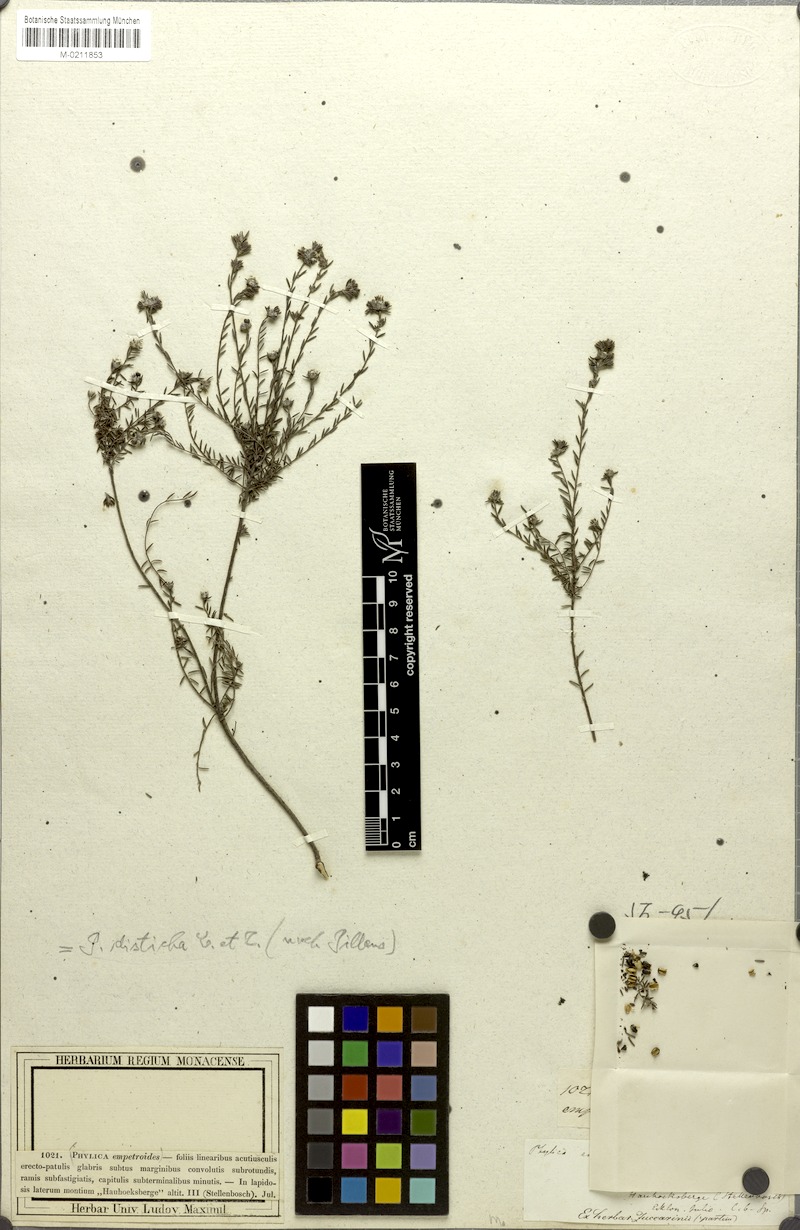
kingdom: Plantae
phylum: Tracheophyta
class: Magnoliopsida
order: Rosales
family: Rhamnaceae
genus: Phylica
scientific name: Phylica disticha
